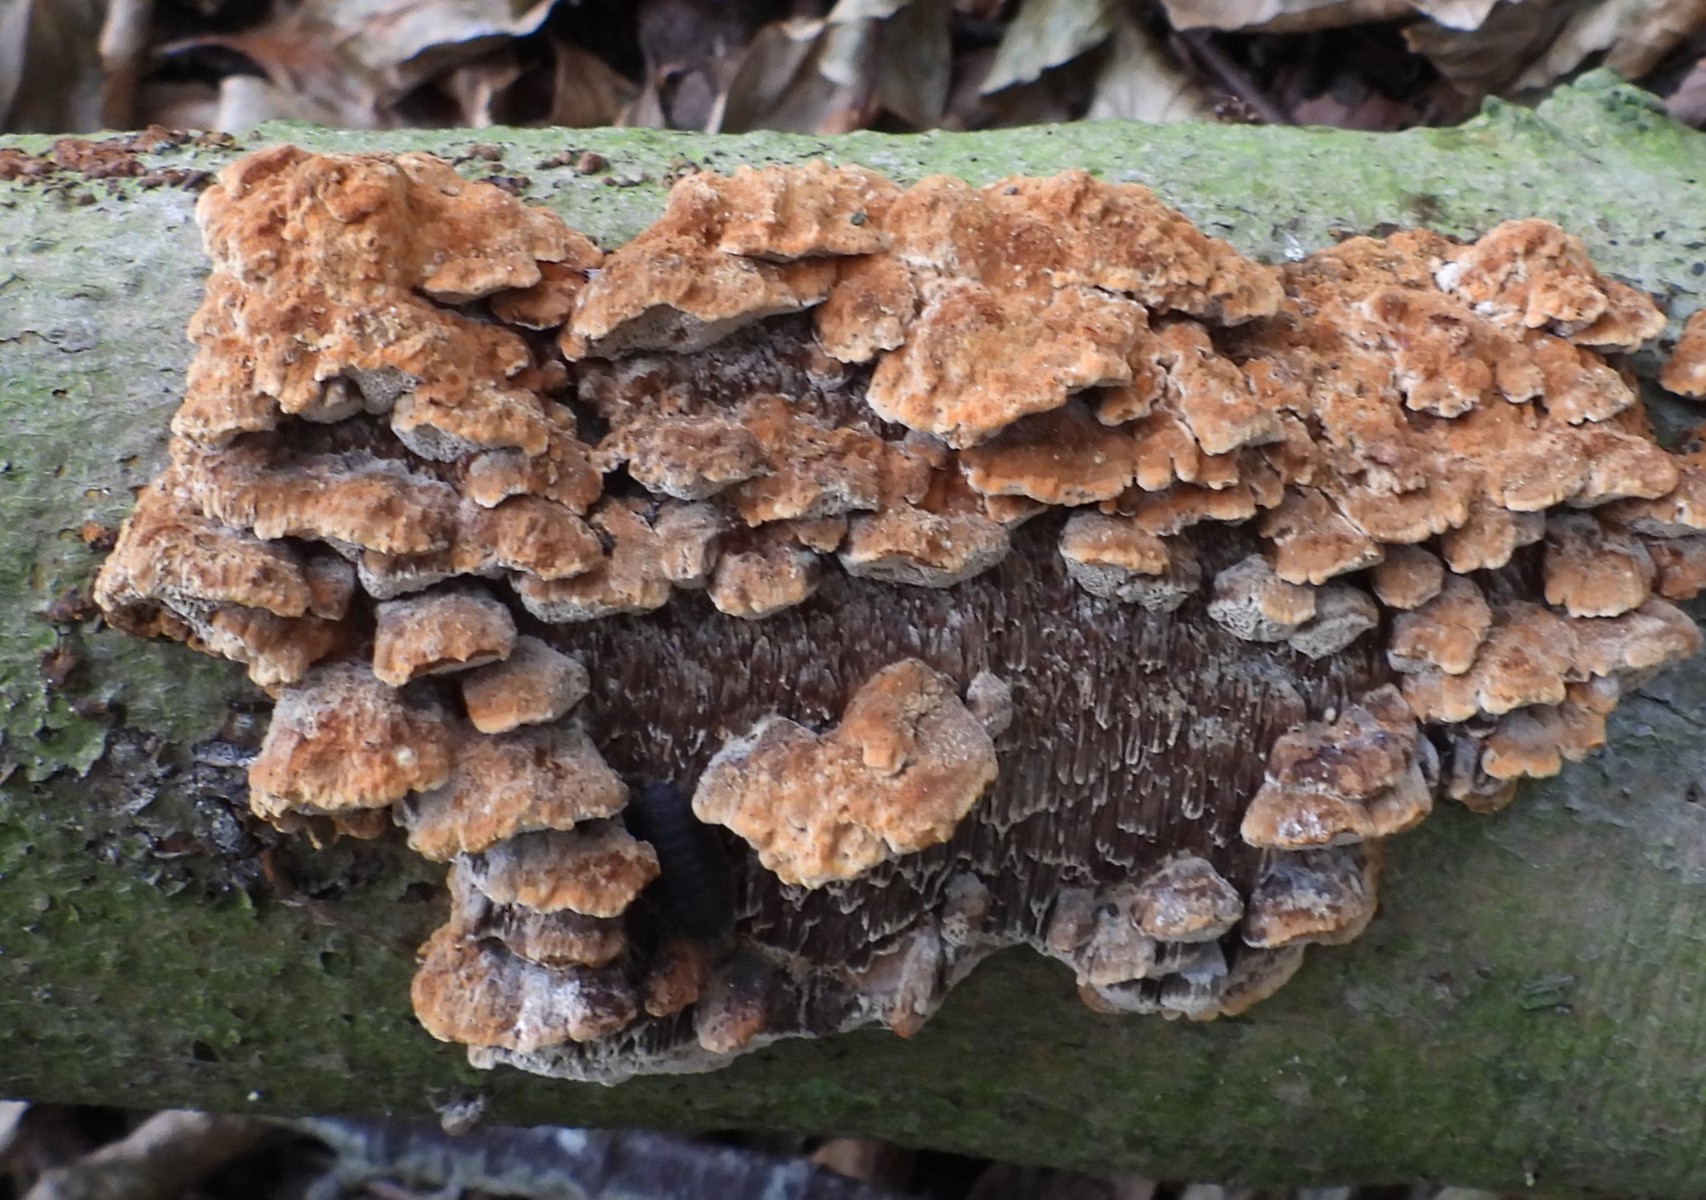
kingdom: Fungi
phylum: Basidiomycota
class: Agaricomycetes
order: Hymenochaetales
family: Hymenochaetaceae
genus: Mensularia
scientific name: Mensularia nodulosa
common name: bøge-spejlporesvamp
